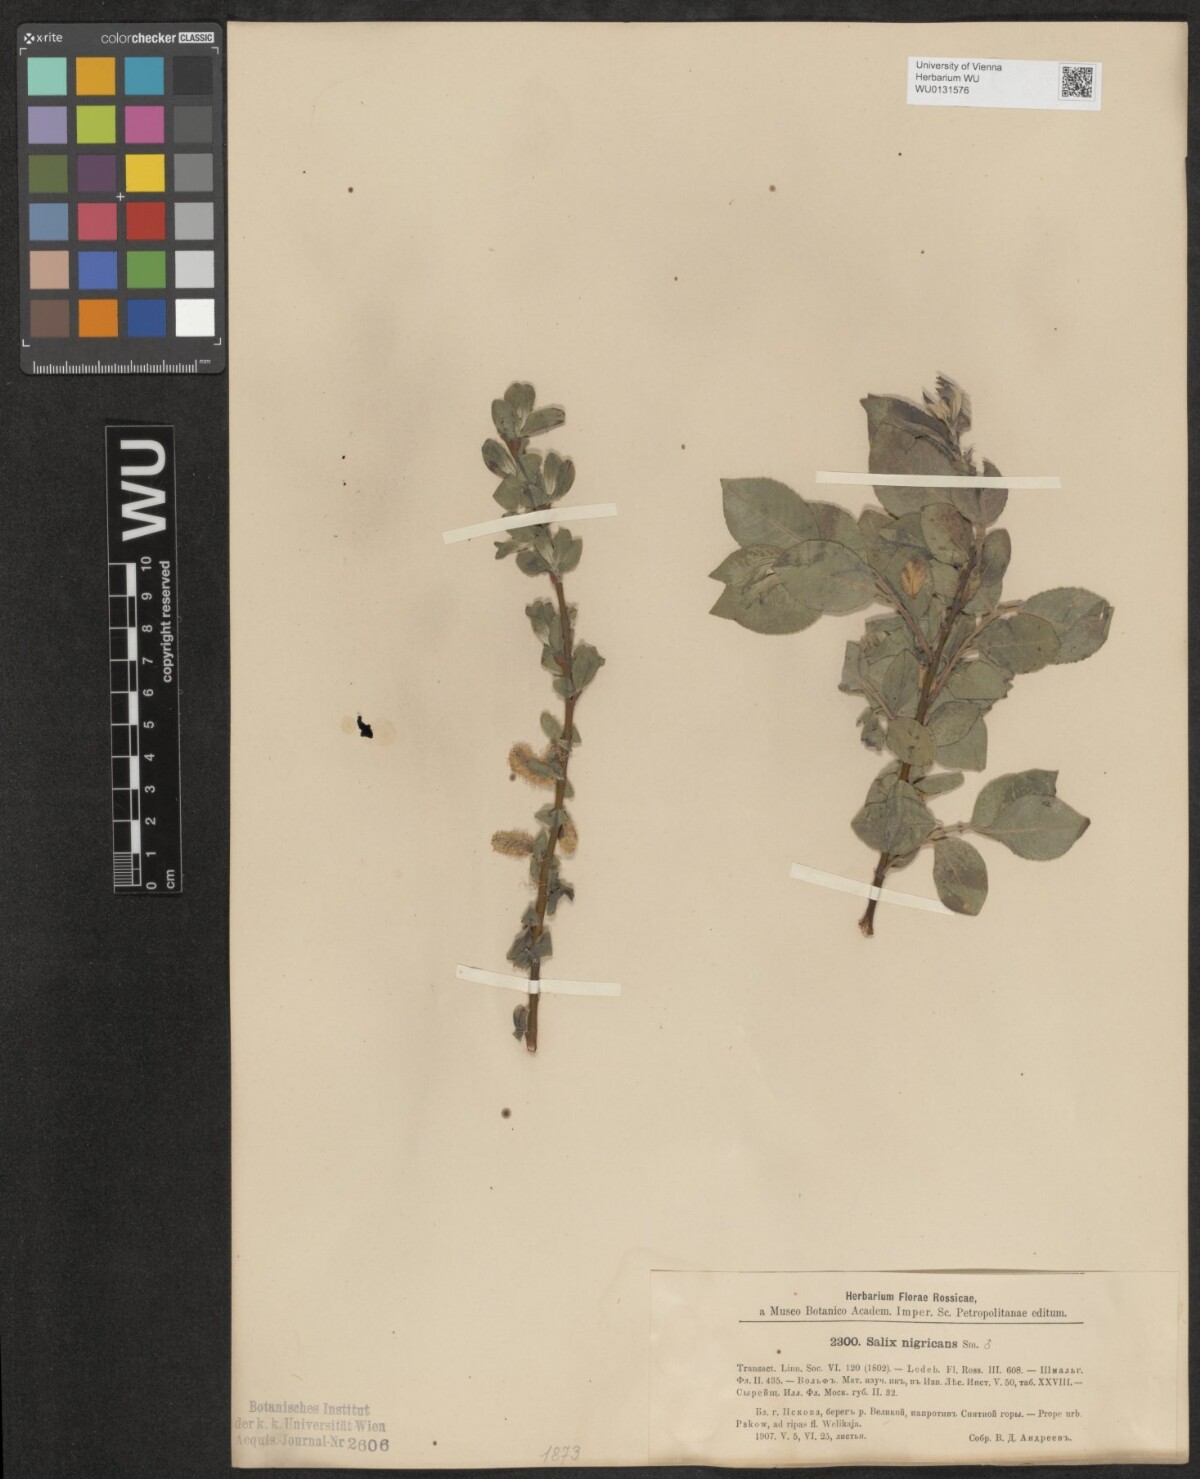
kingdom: Plantae
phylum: Tracheophyta
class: Magnoliopsida
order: Malpighiales
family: Salicaceae
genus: Salix
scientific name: Salix myrsinifolia
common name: Dark-leaved willow
